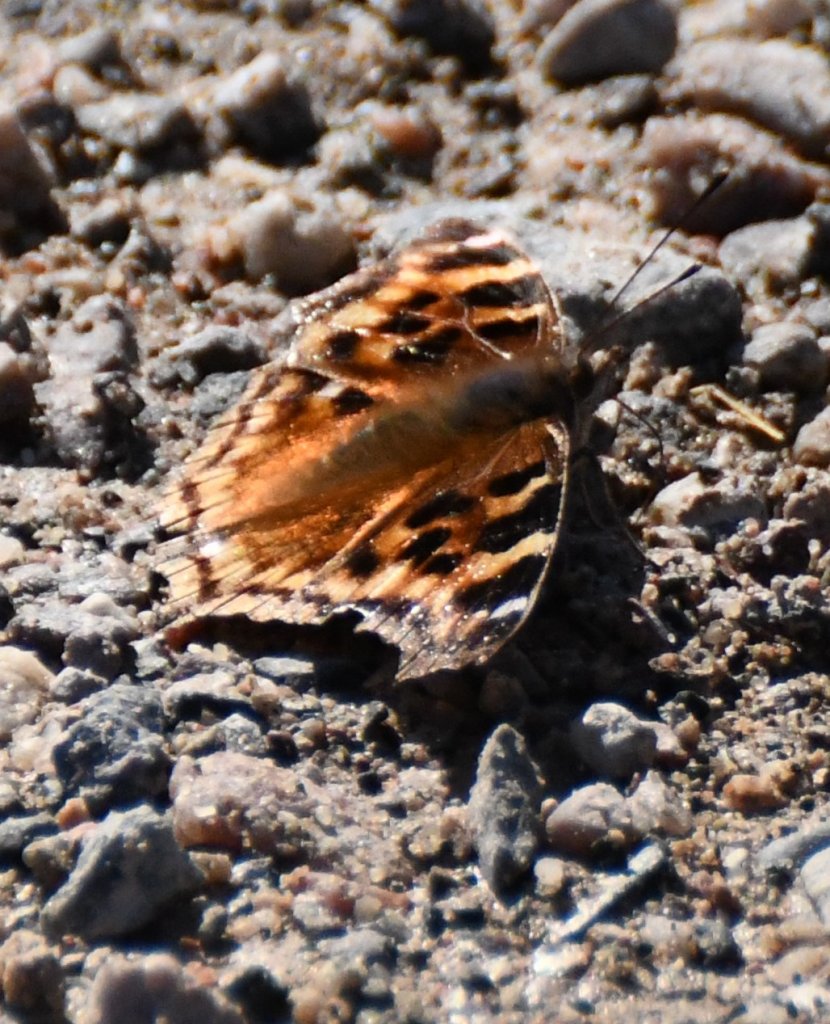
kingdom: Animalia
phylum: Arthropoda
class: Insecta
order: Lepidoptera
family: Nymphalidae
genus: Polygonia
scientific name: Polygonia vaualbum
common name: Compton Tortoiseshell
